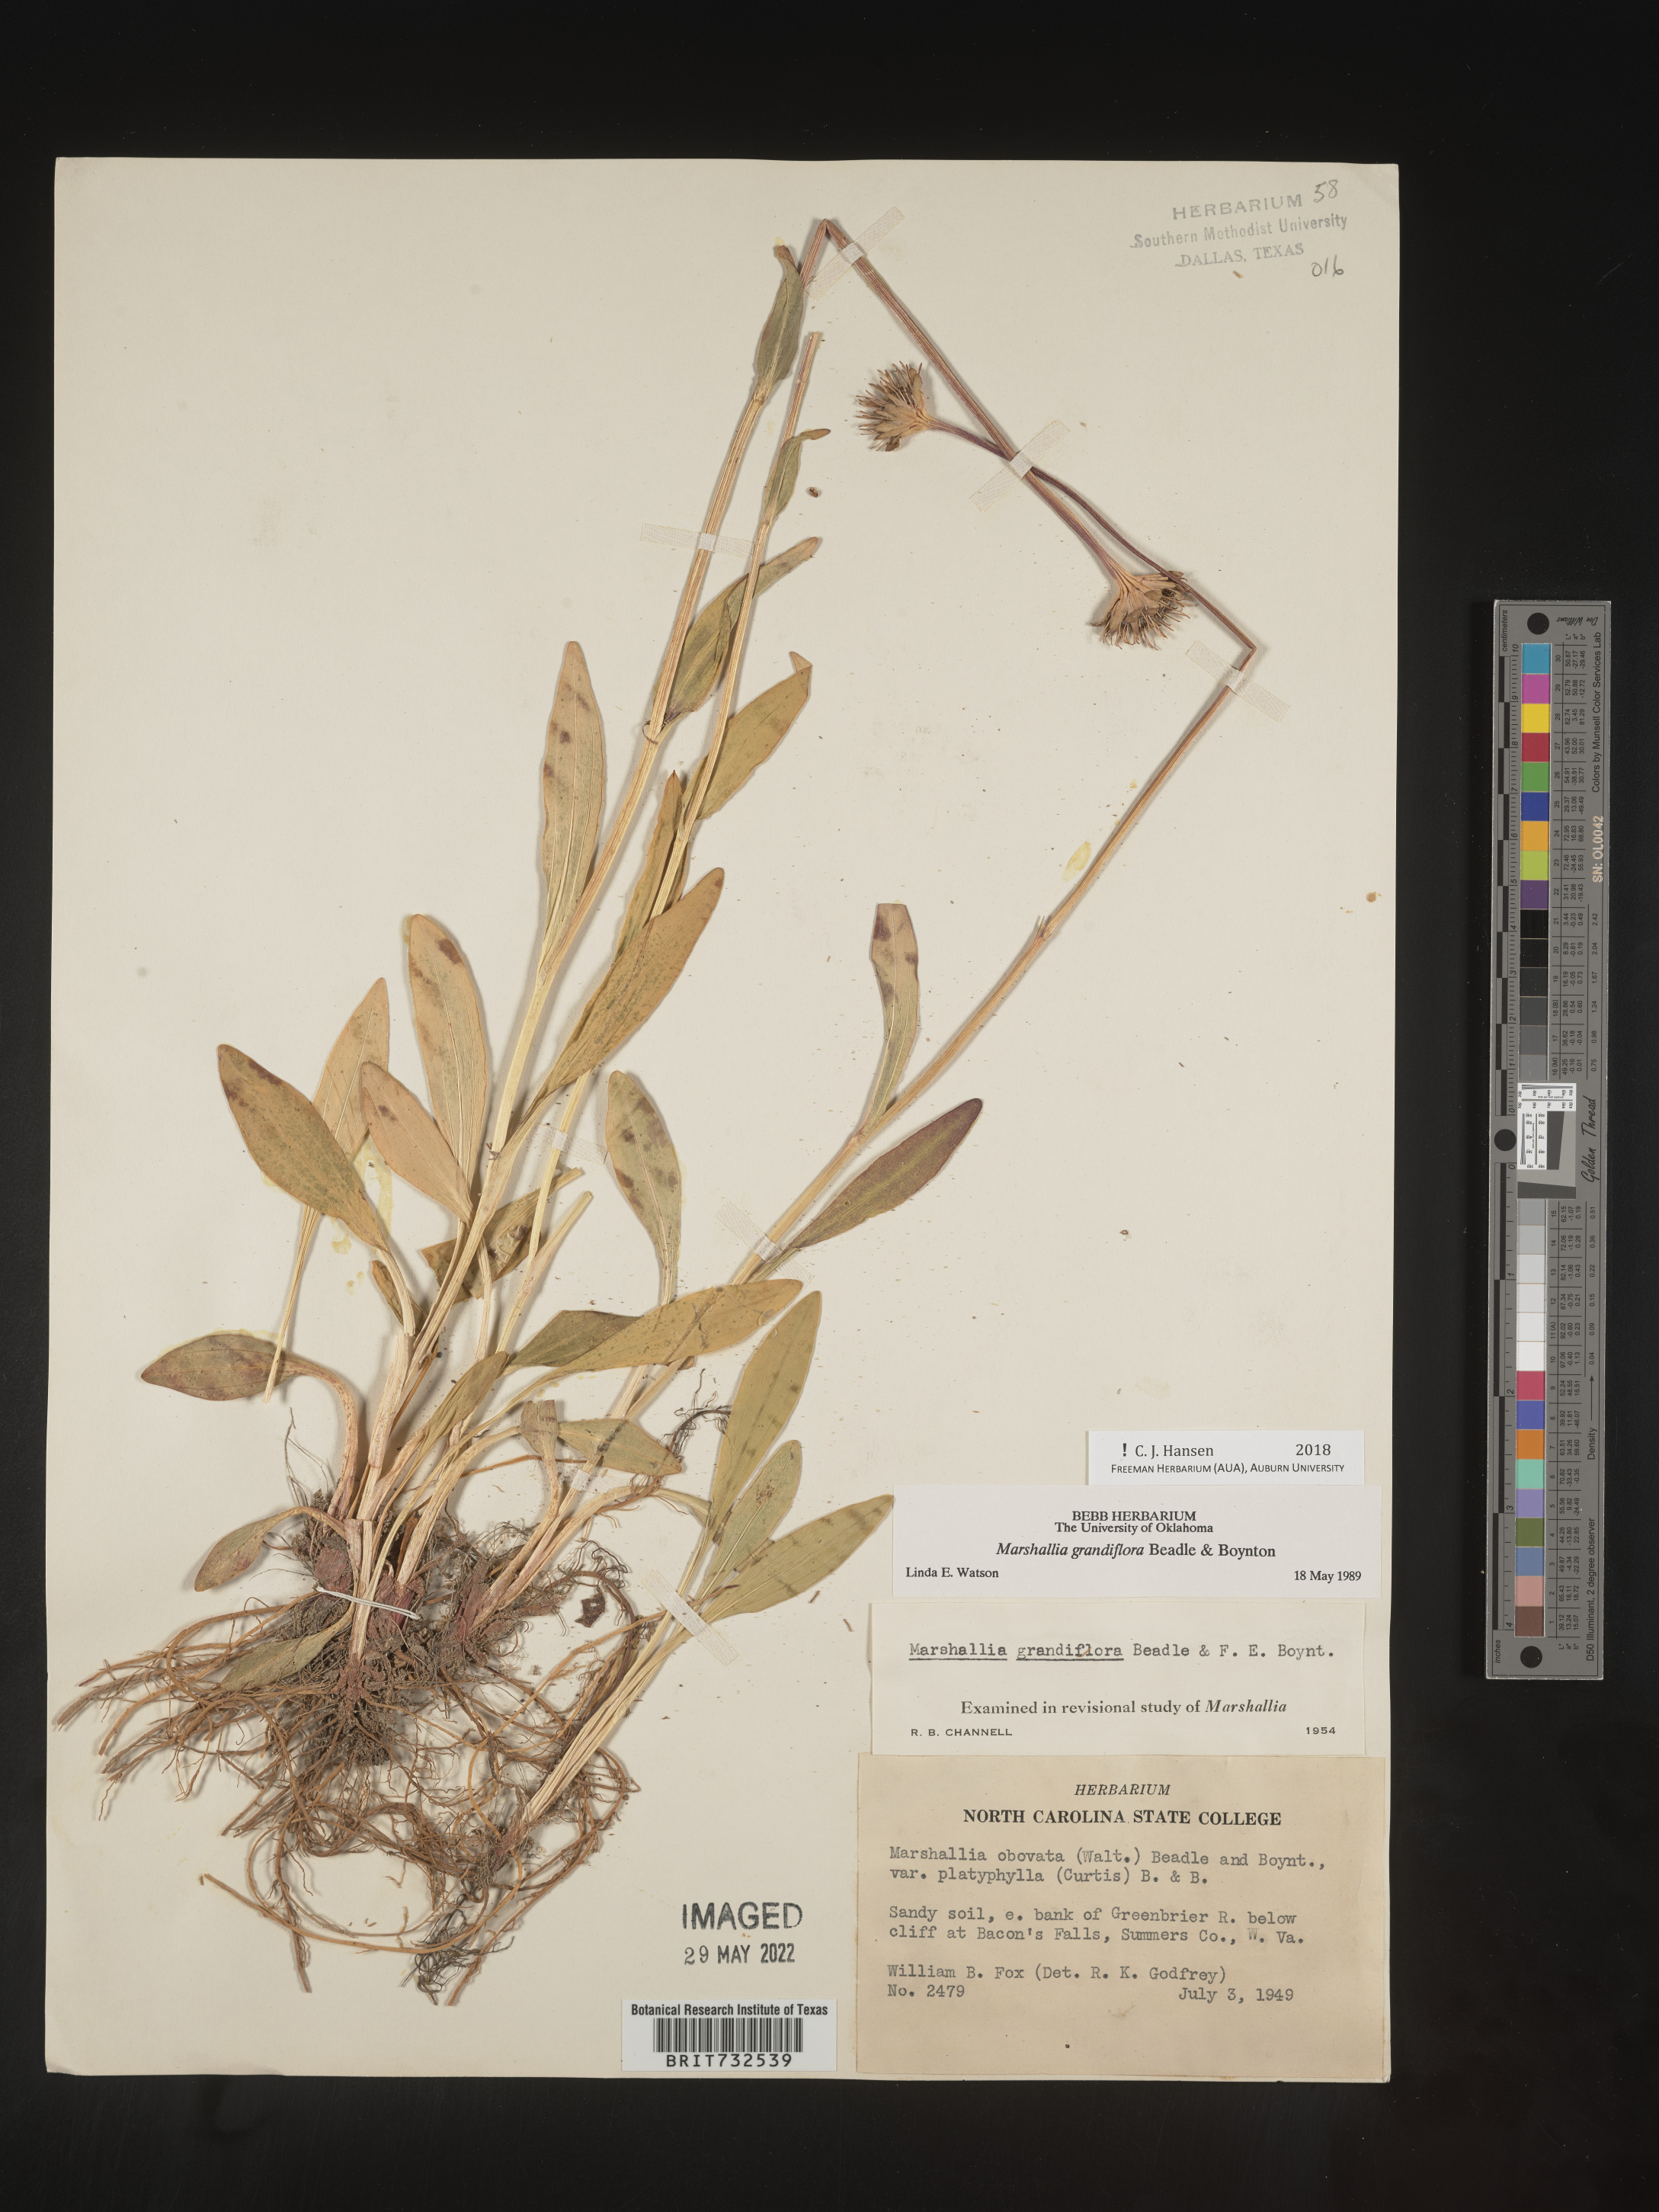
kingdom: Plantae
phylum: Tracheophyta
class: Magnoliopsida
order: Asterales
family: Asteraceae
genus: Marshallia
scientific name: Marshallia grandiflora
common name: Barbara's buttons
